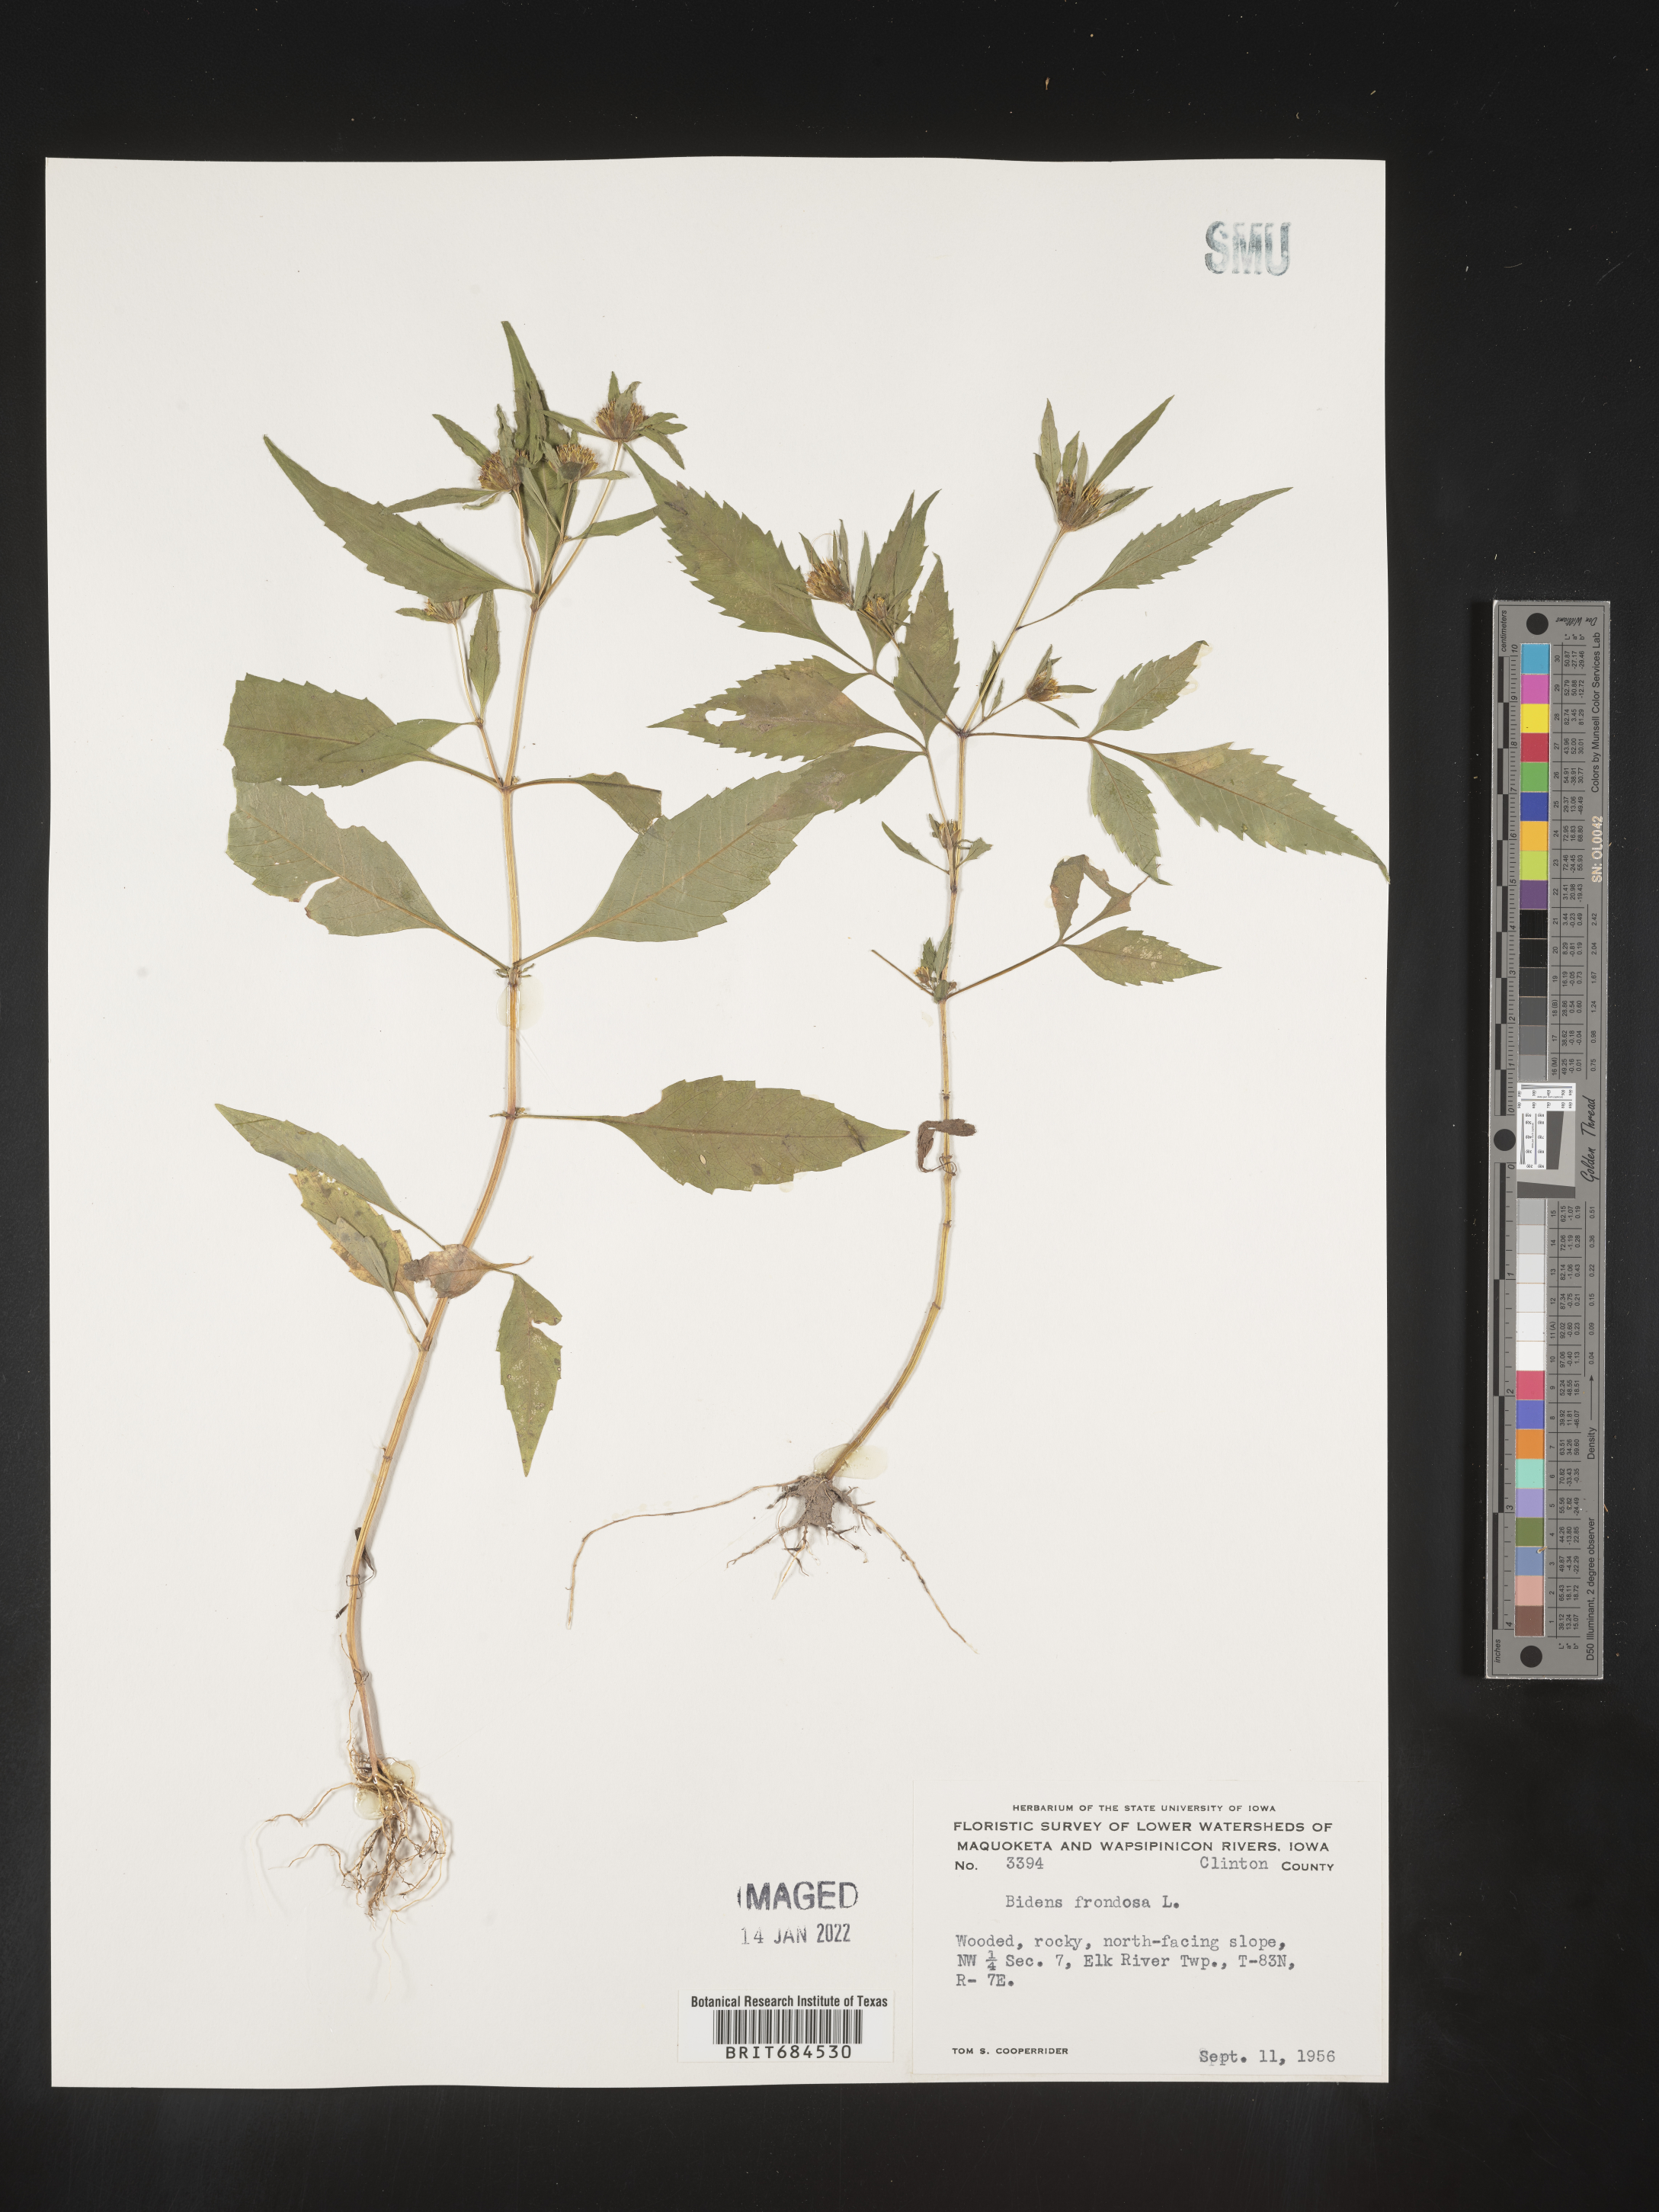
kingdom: Plantae
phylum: Tracheophyta
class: Magnoliopsida
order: Asterales
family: Asteraceae
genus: Bidens
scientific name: Bidens frondosa
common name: Beggarticks
